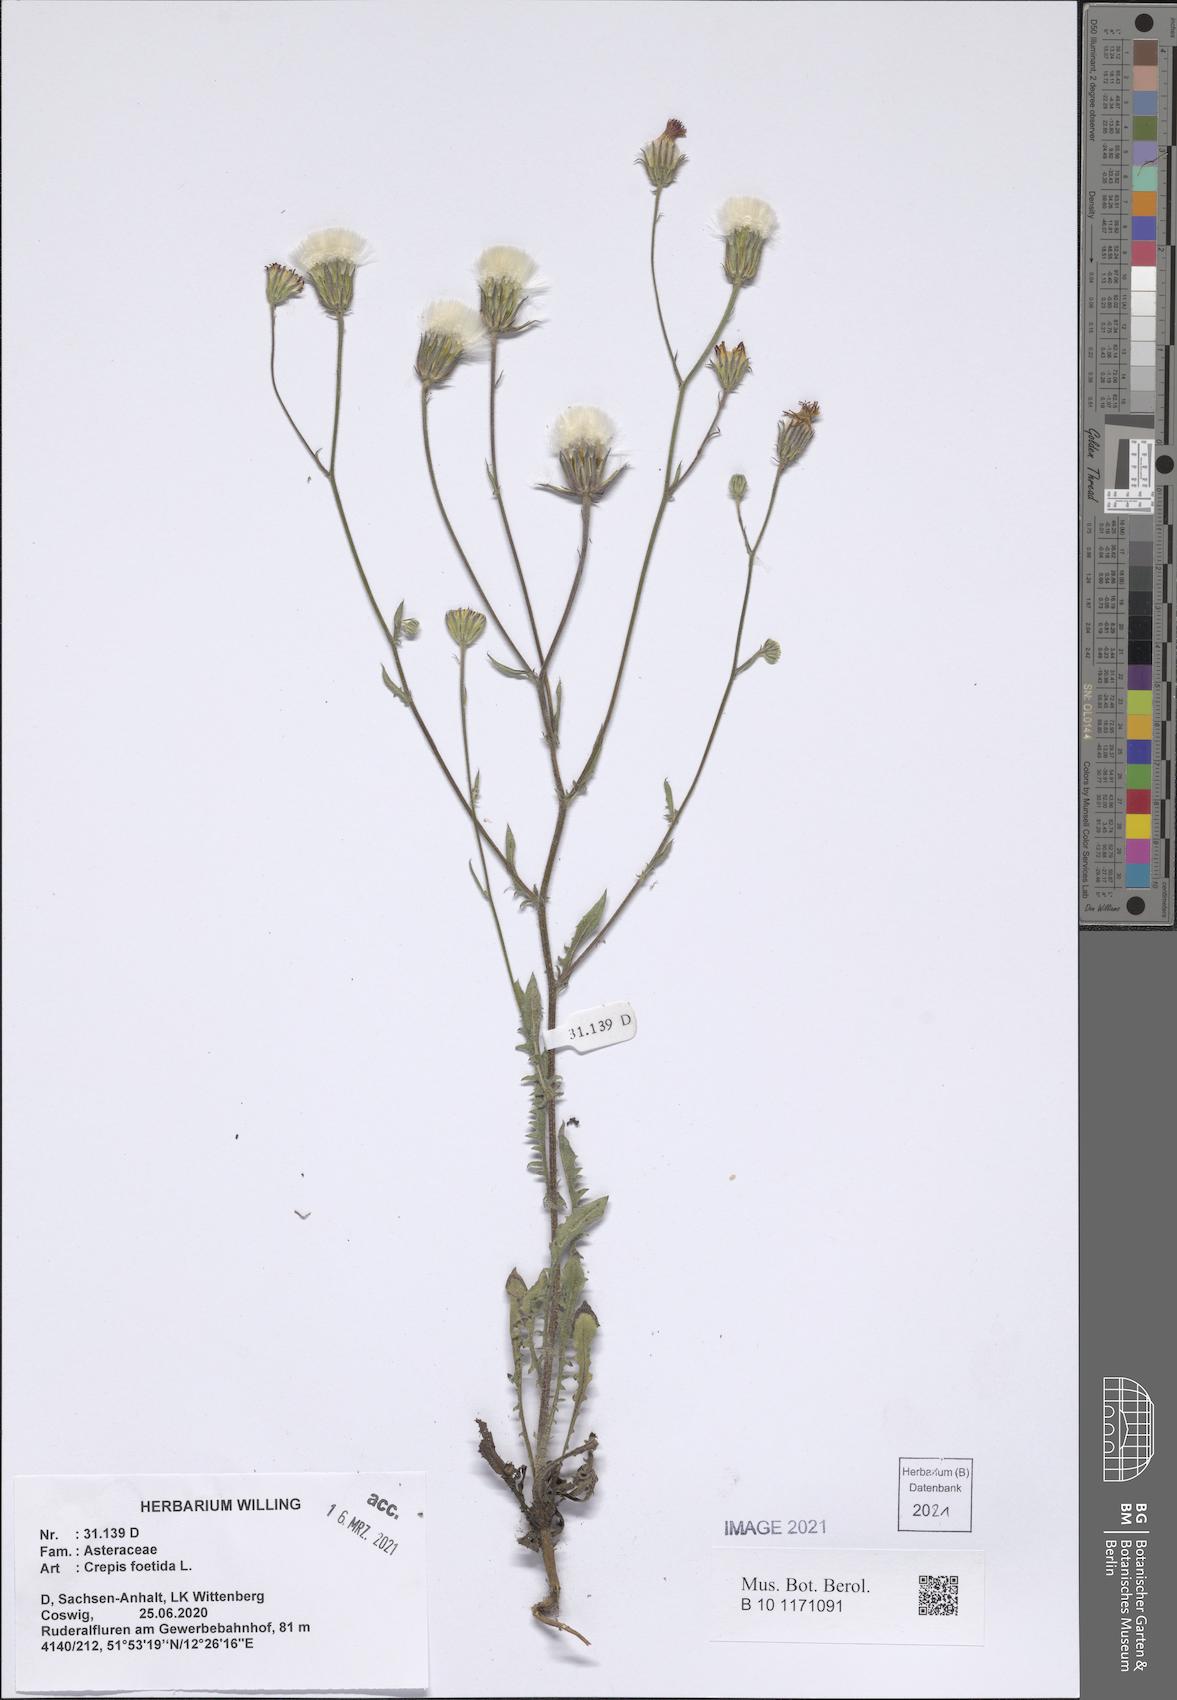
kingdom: Plantae
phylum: Tracheophyta
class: Magnoliopsida
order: Asterales
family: Asteraceae
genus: Crepis
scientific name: Crepis foetida
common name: Stinking hawk's-beard
